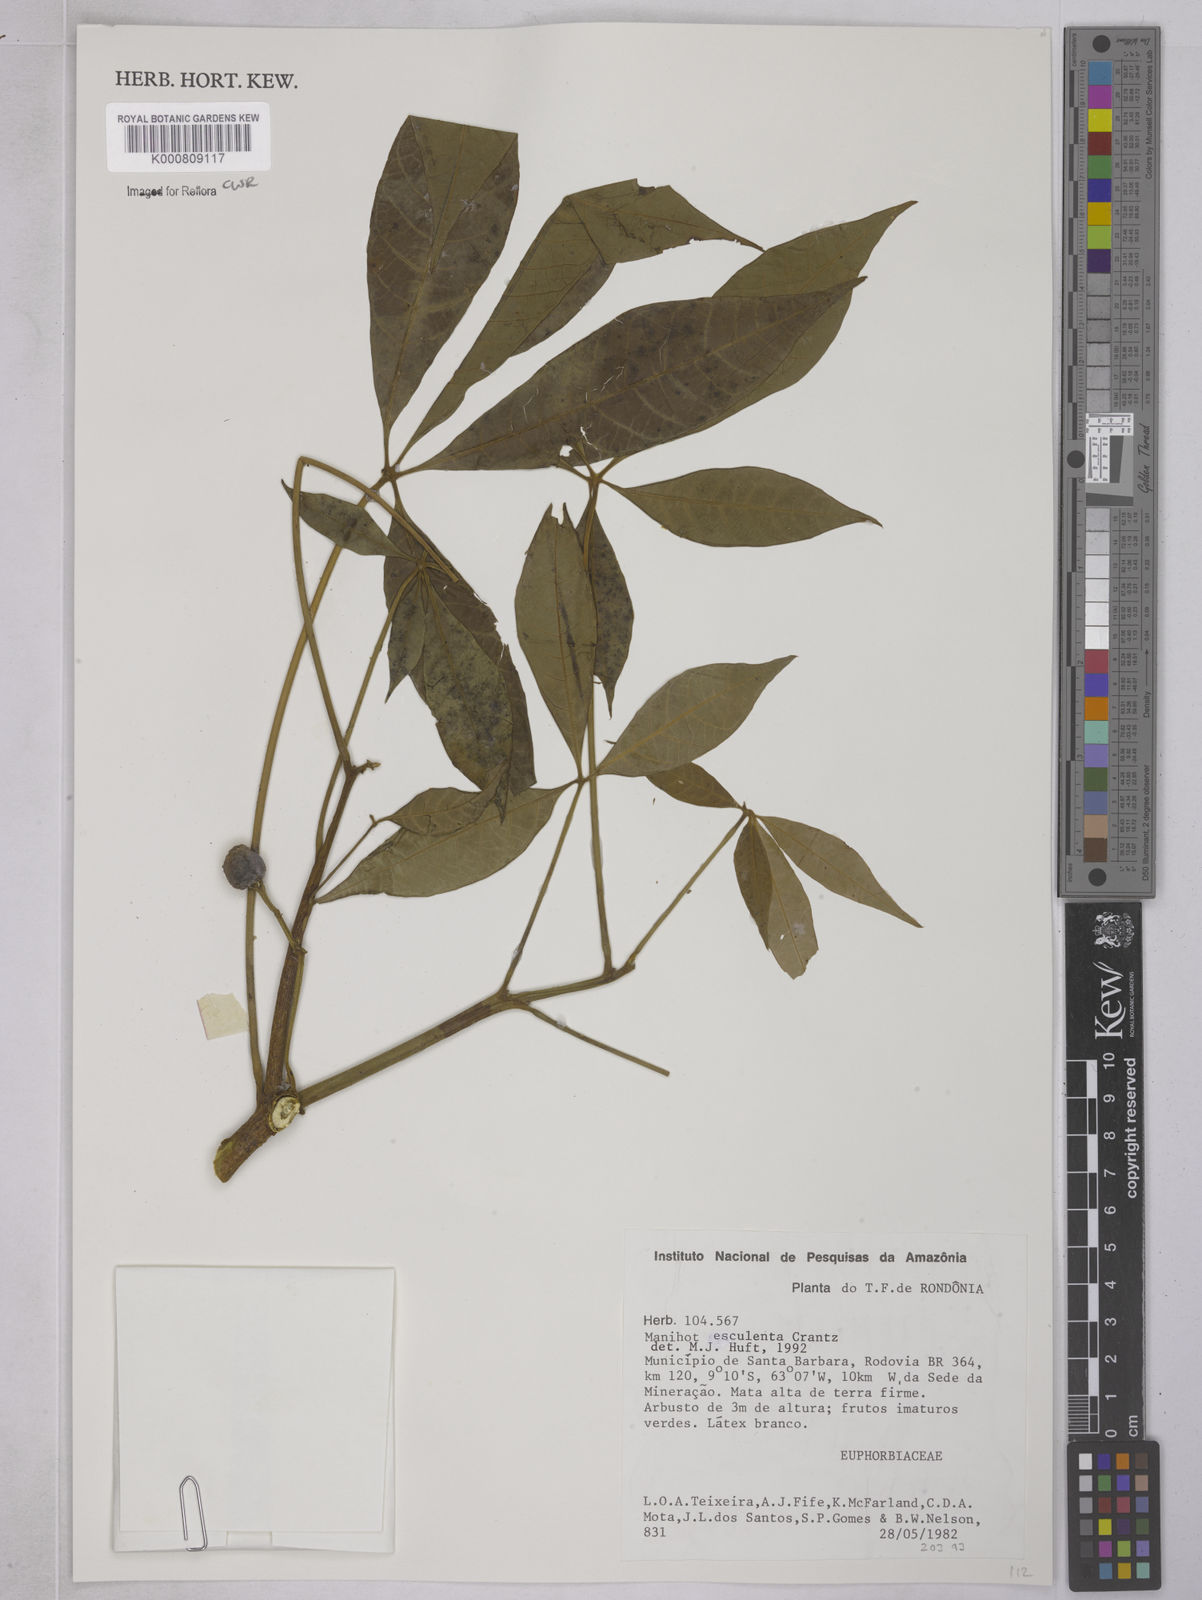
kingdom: Plantae
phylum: Tracheophyta
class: Magnoliopsida
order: Malpighiales
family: Euphorbiaceae
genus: Manihot
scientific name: Manihot esculenta
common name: Cassava
